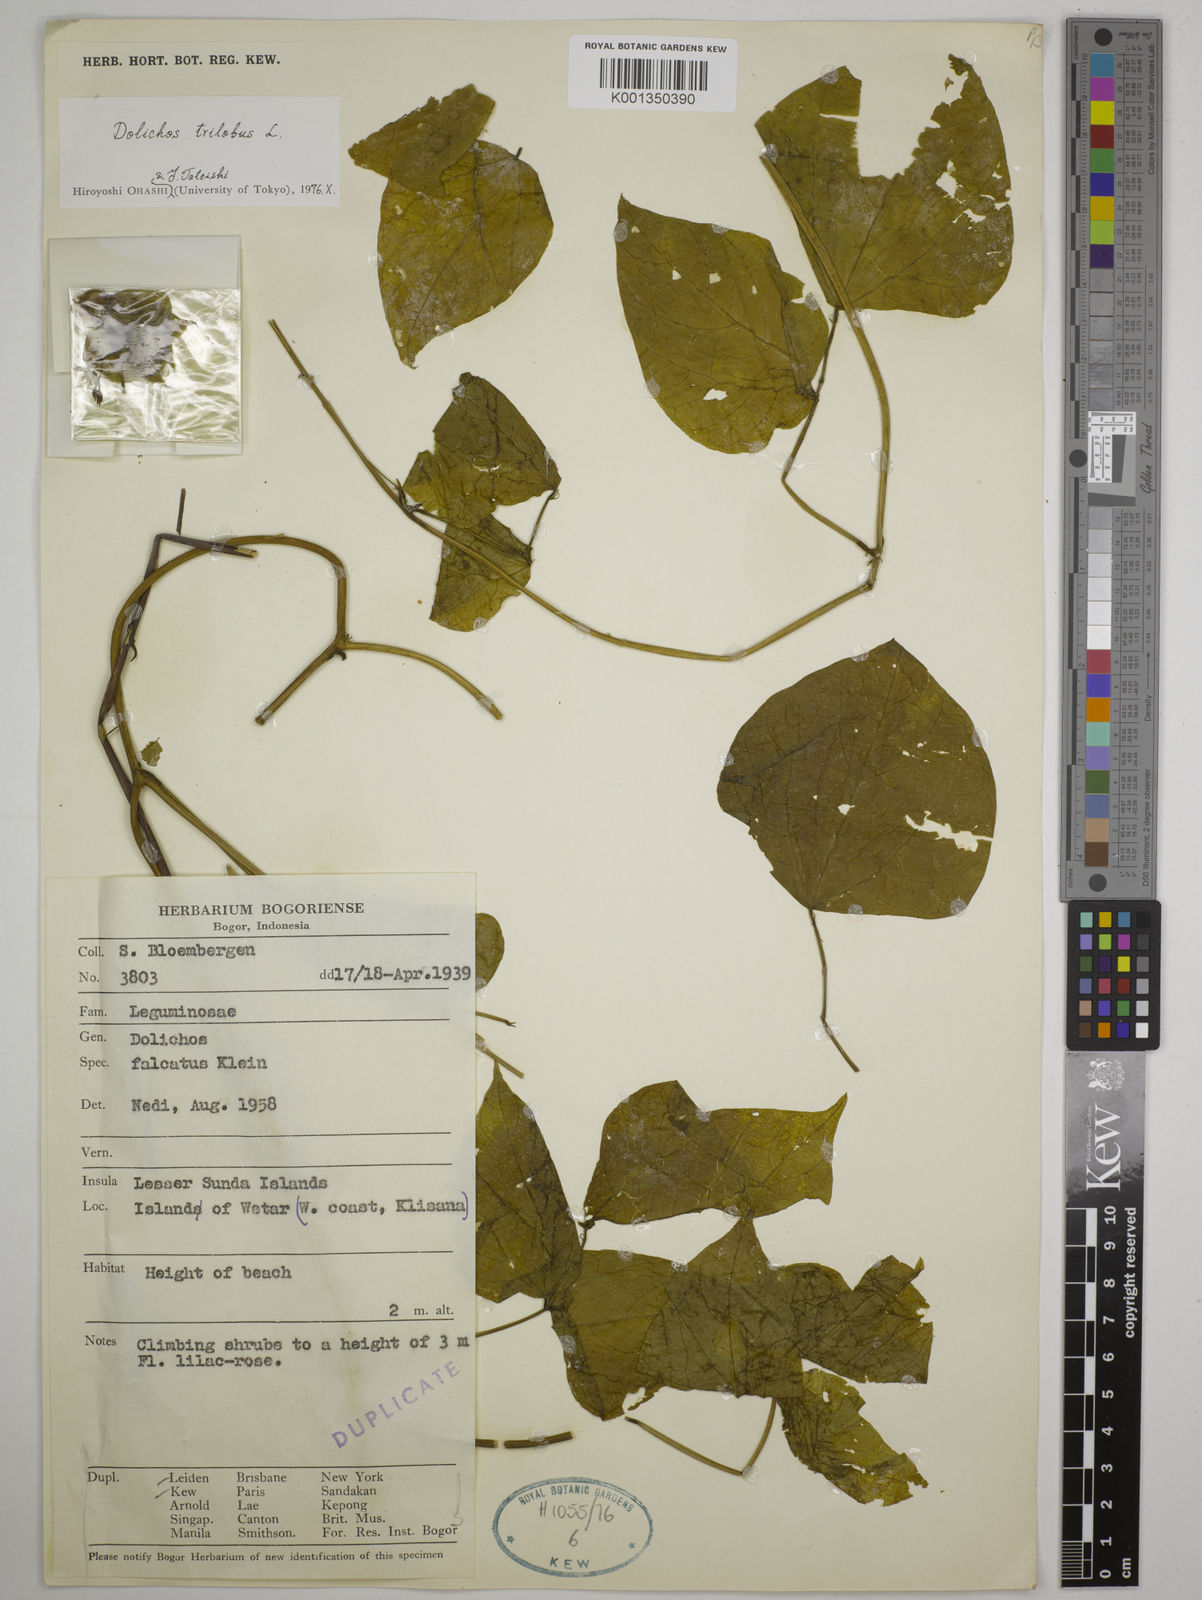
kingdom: Plantae
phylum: Tracheophyta
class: Magnoliopsida
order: Fabales
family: Fabaceae
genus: Dolichos
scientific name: Dolichos
